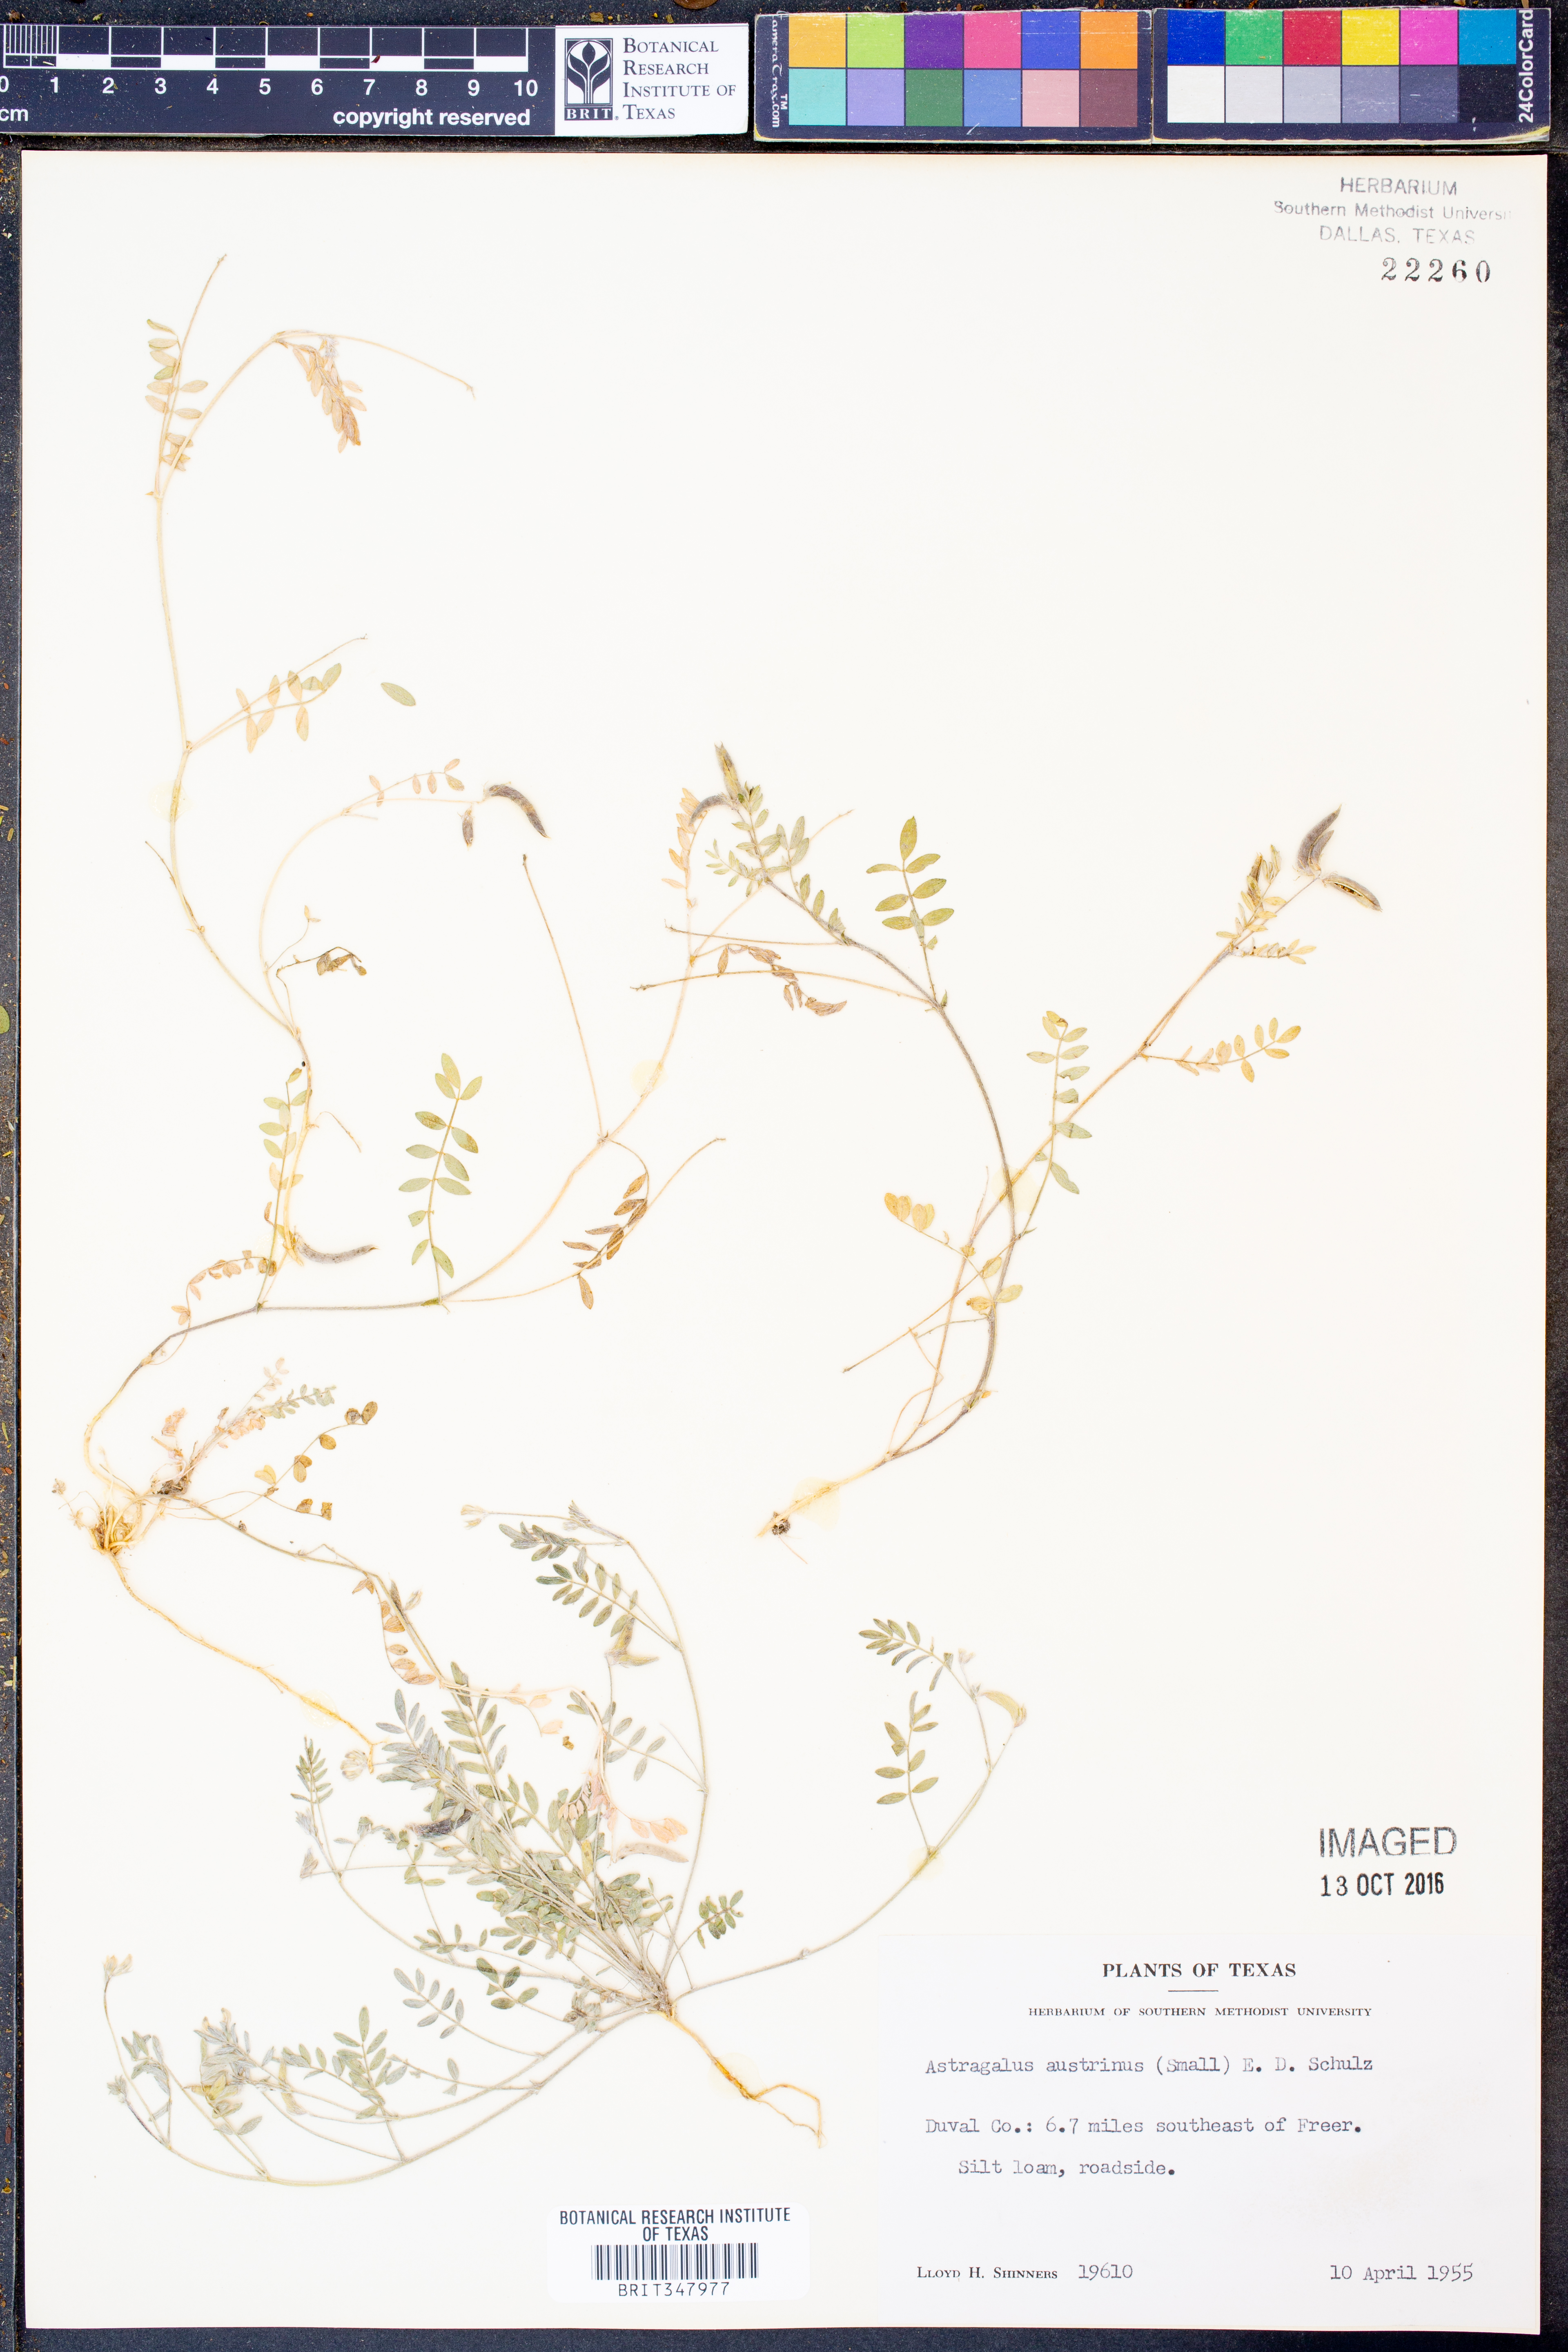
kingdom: Plantae
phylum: Tracheophyta
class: Magnoliopsida
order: Fabales
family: Fabaceae
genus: Astragalus
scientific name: Astragalus nuttallianus
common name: Smallflowered milkvetch
